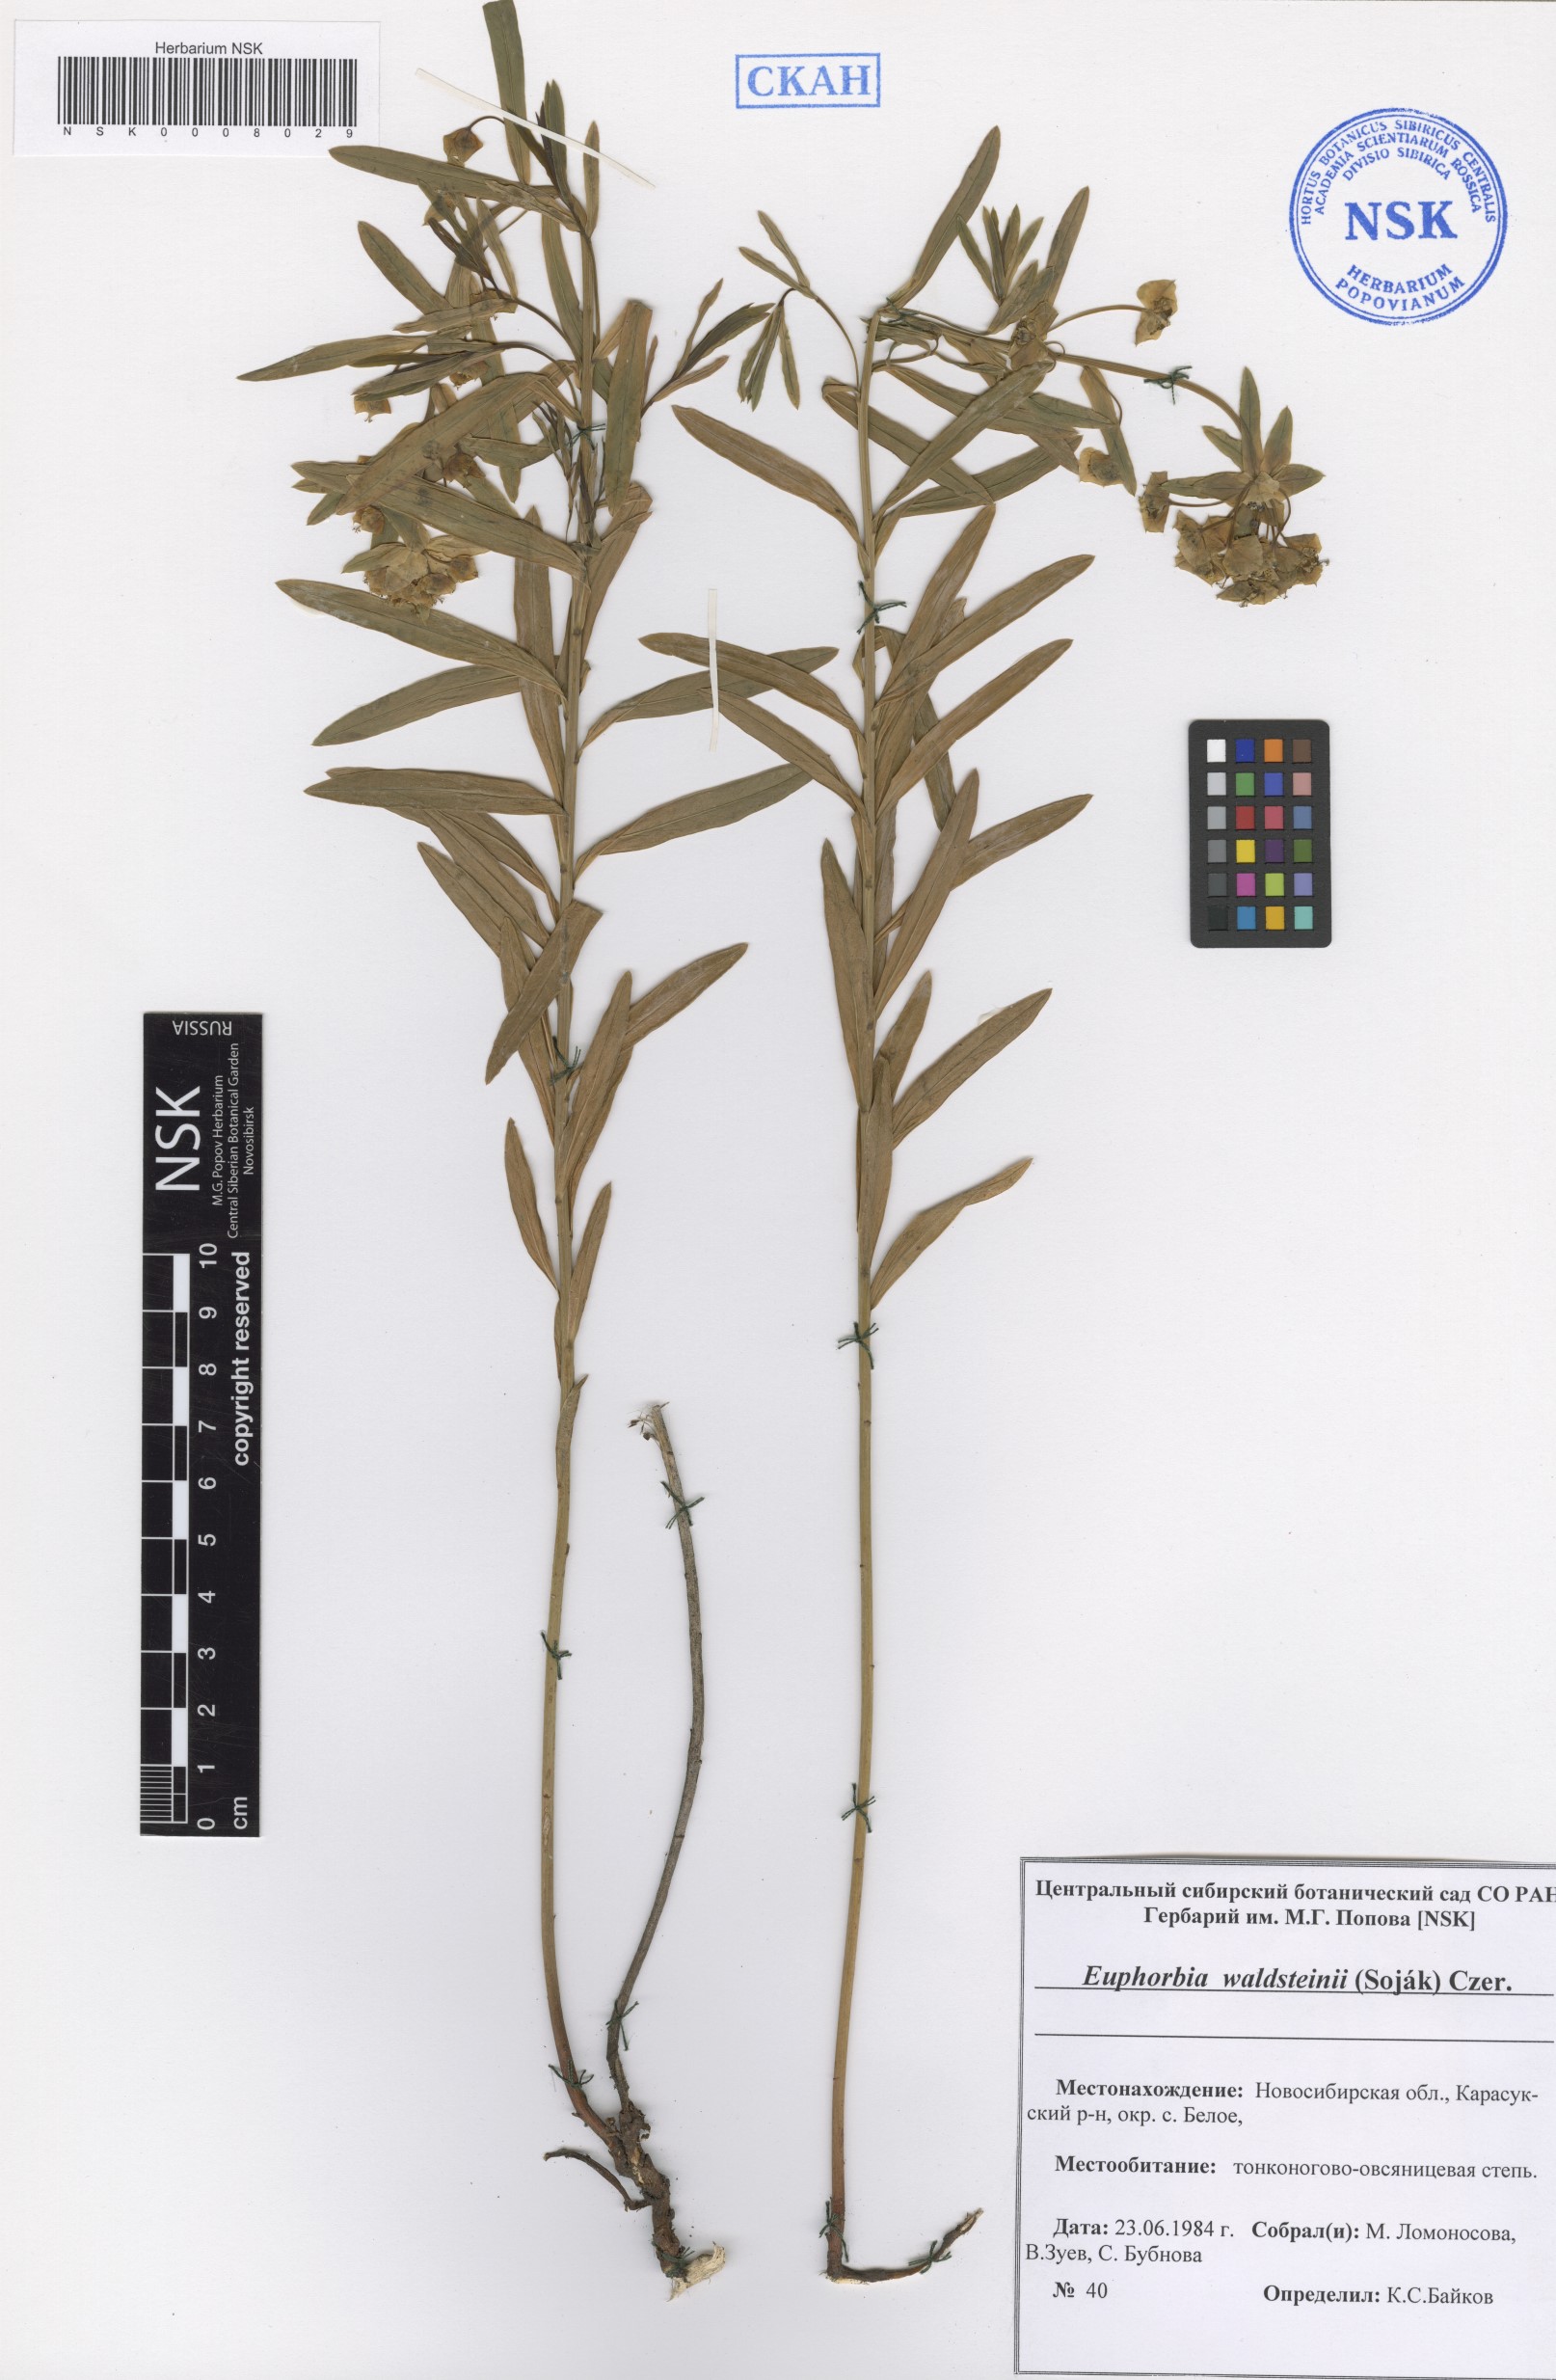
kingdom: Plantae
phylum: Tracheophyta
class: Magnoliopsida
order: Malpighiales
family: Euphorbiaceae
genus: Euphorbia
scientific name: Euphorbia virgata
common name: Leafy spurge
